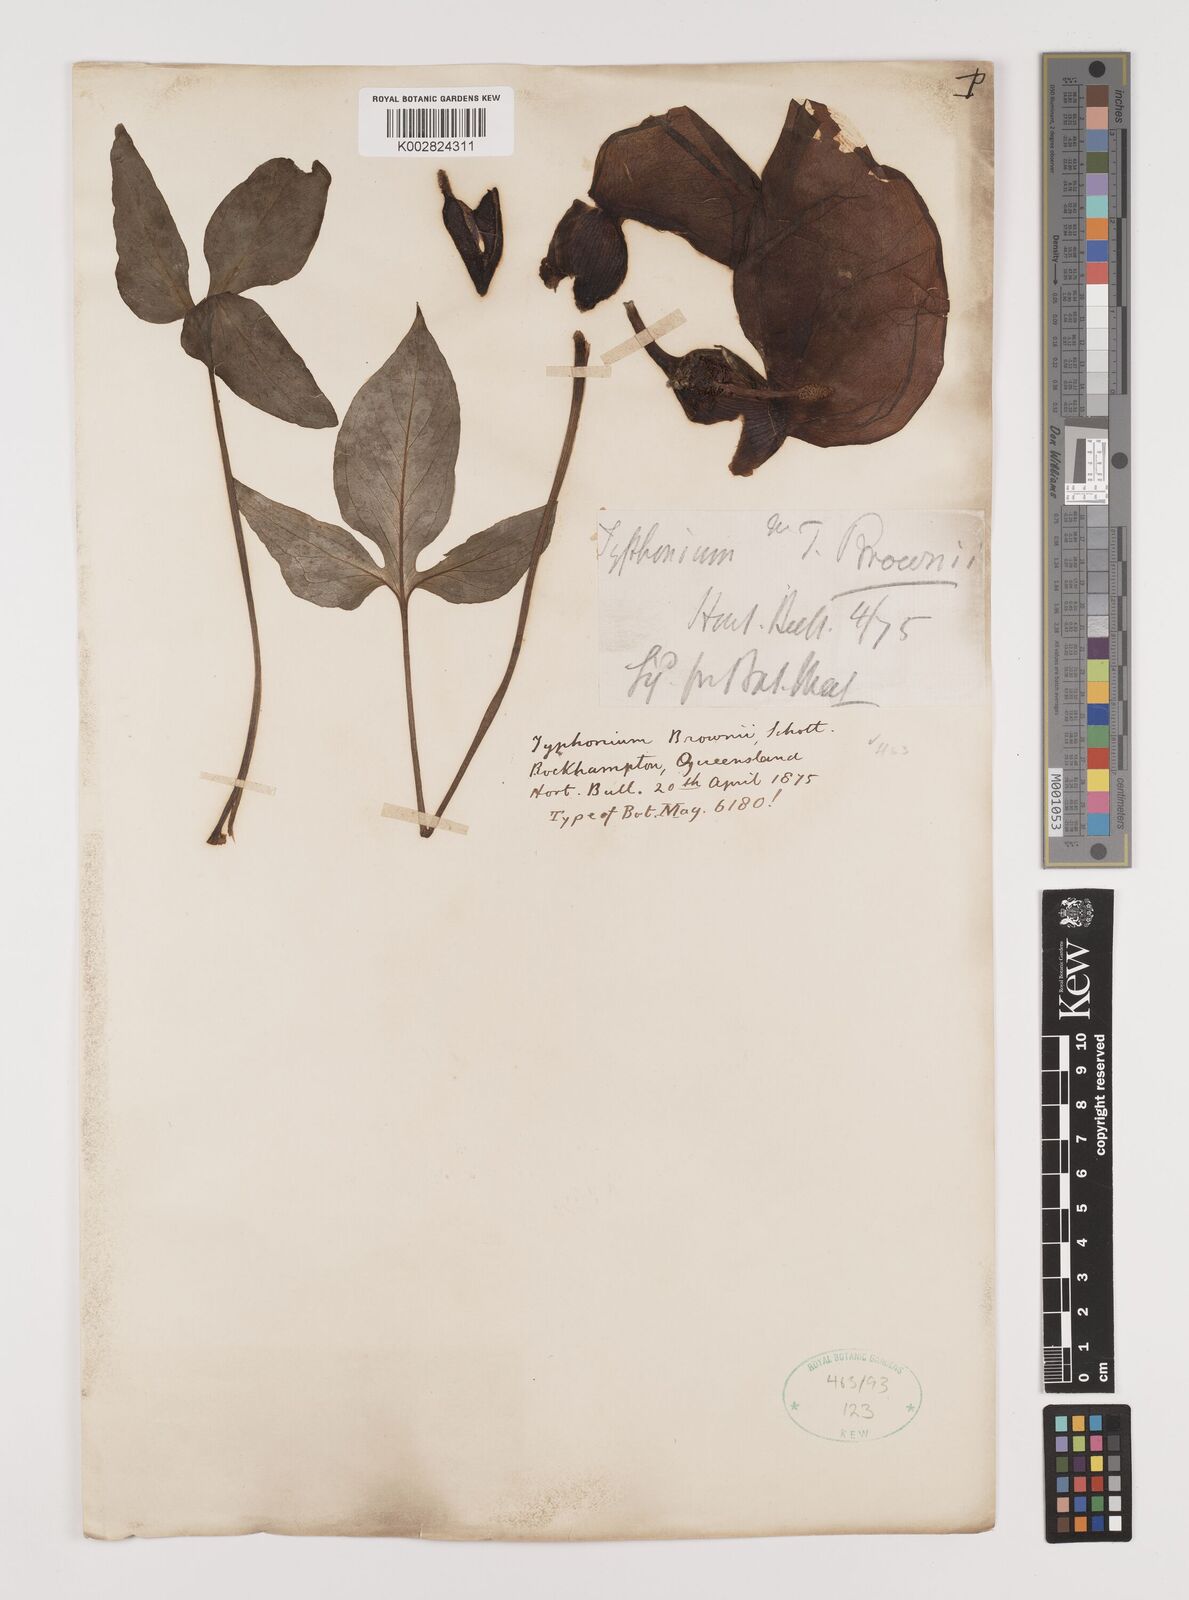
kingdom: Plantae
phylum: Tracheophyta
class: Liliopsida
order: Alismatales
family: Araceae
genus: Typhonium
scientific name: Typhonium brownii
